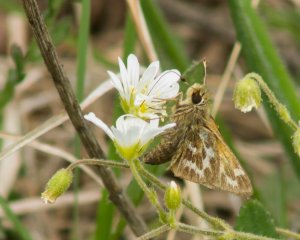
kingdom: Animalia
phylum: Arthropoda
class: Insecta
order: Lepidoptera
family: Hesperiidae
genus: Hesperia
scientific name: Hesperia metea
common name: Cobweb Skipper
